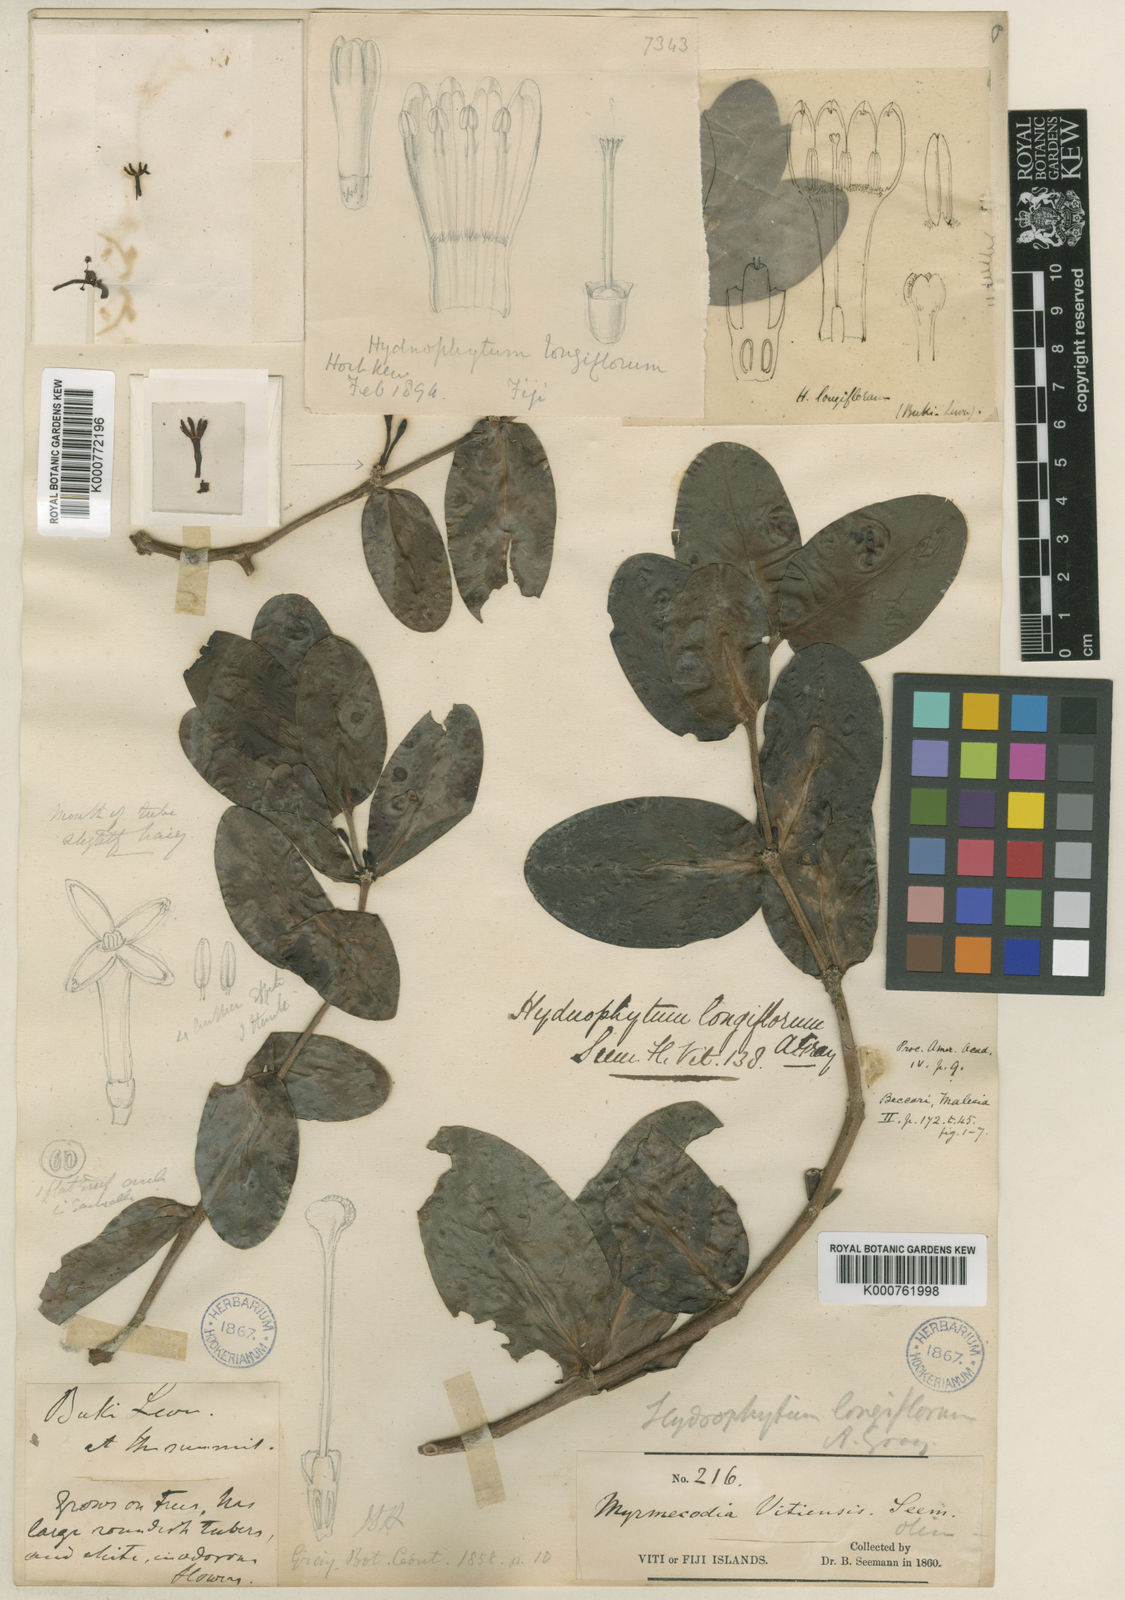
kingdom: Plantae
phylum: Tracheophyta
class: Magnoliopsida
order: Gentianales
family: Rubiaceae
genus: Hydnophytum
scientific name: Hydnophytum longiflorum
